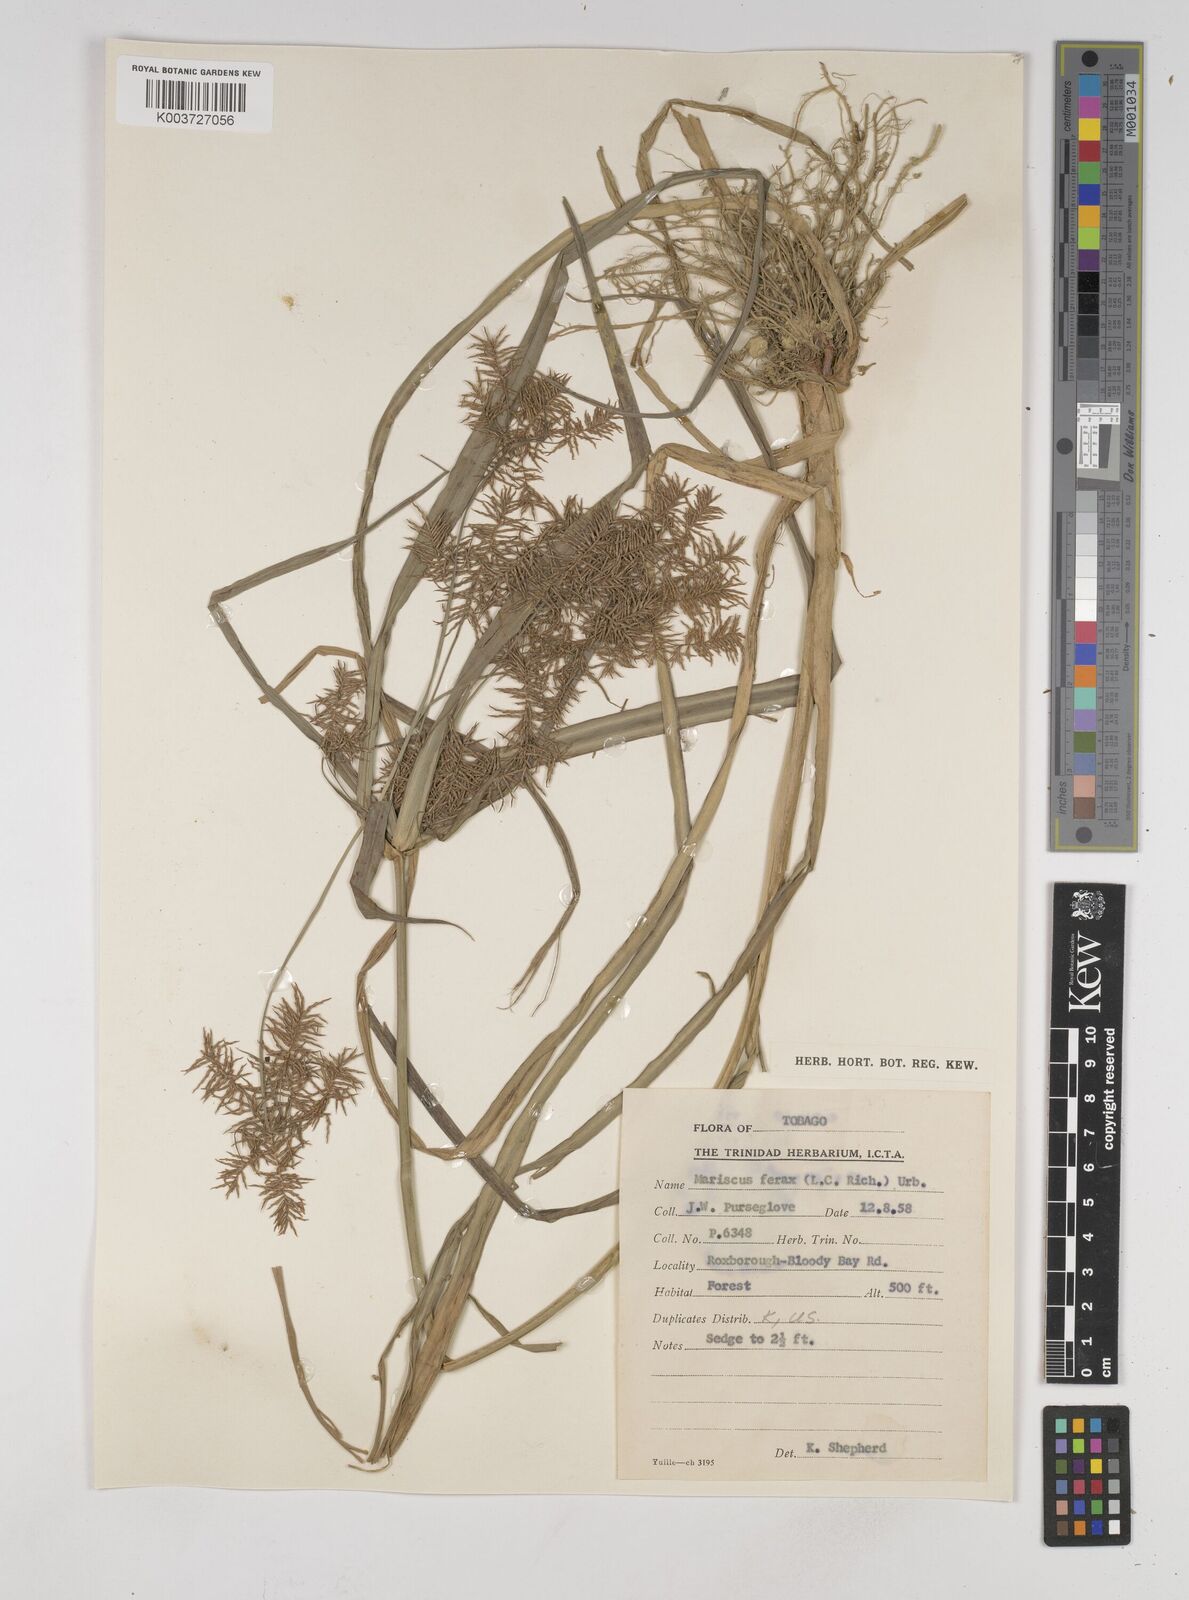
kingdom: Plantae
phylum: Tracheophyta
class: Liliopsida
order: Poales
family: Cyperaceae
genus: Cyperus
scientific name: Cyperus odoratus
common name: Fragrant flatsedge
